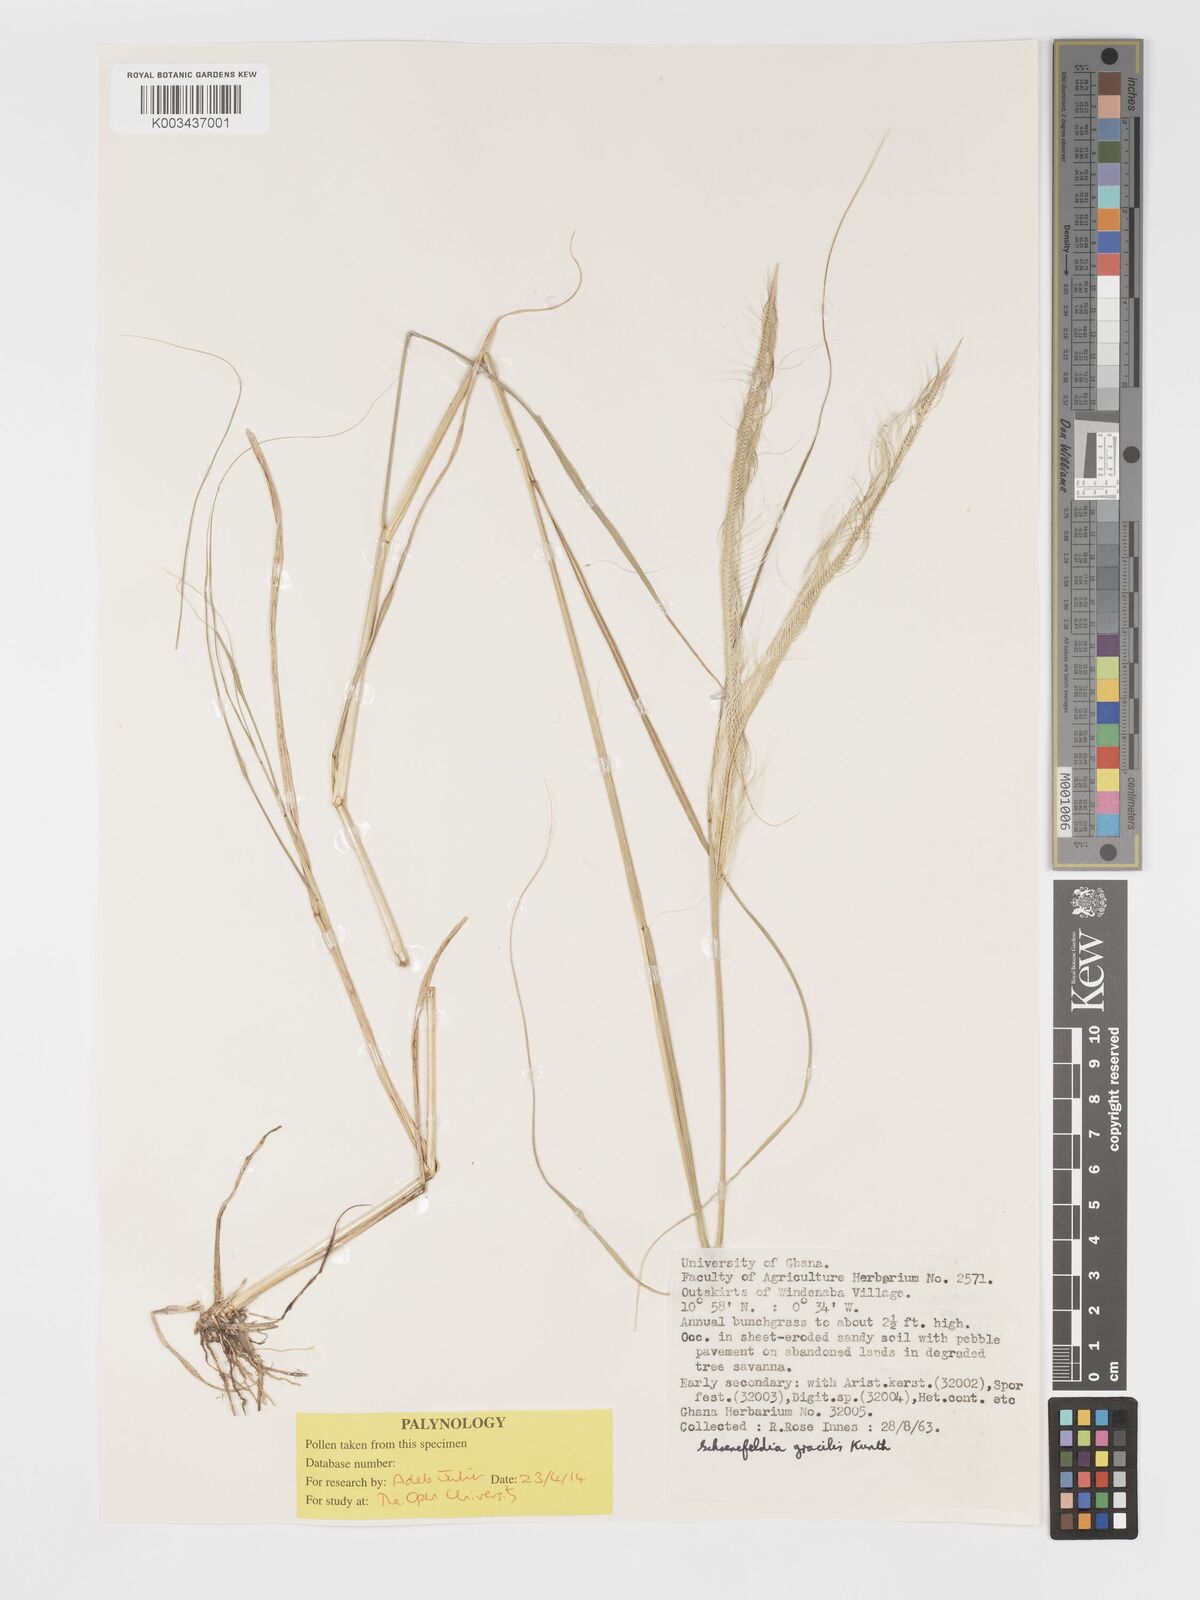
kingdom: Plantae
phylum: Tracheophyta
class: Liliopsida
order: Poales
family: Poaceae
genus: Schoenefeldia
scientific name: Schoenefeldia gracilis
